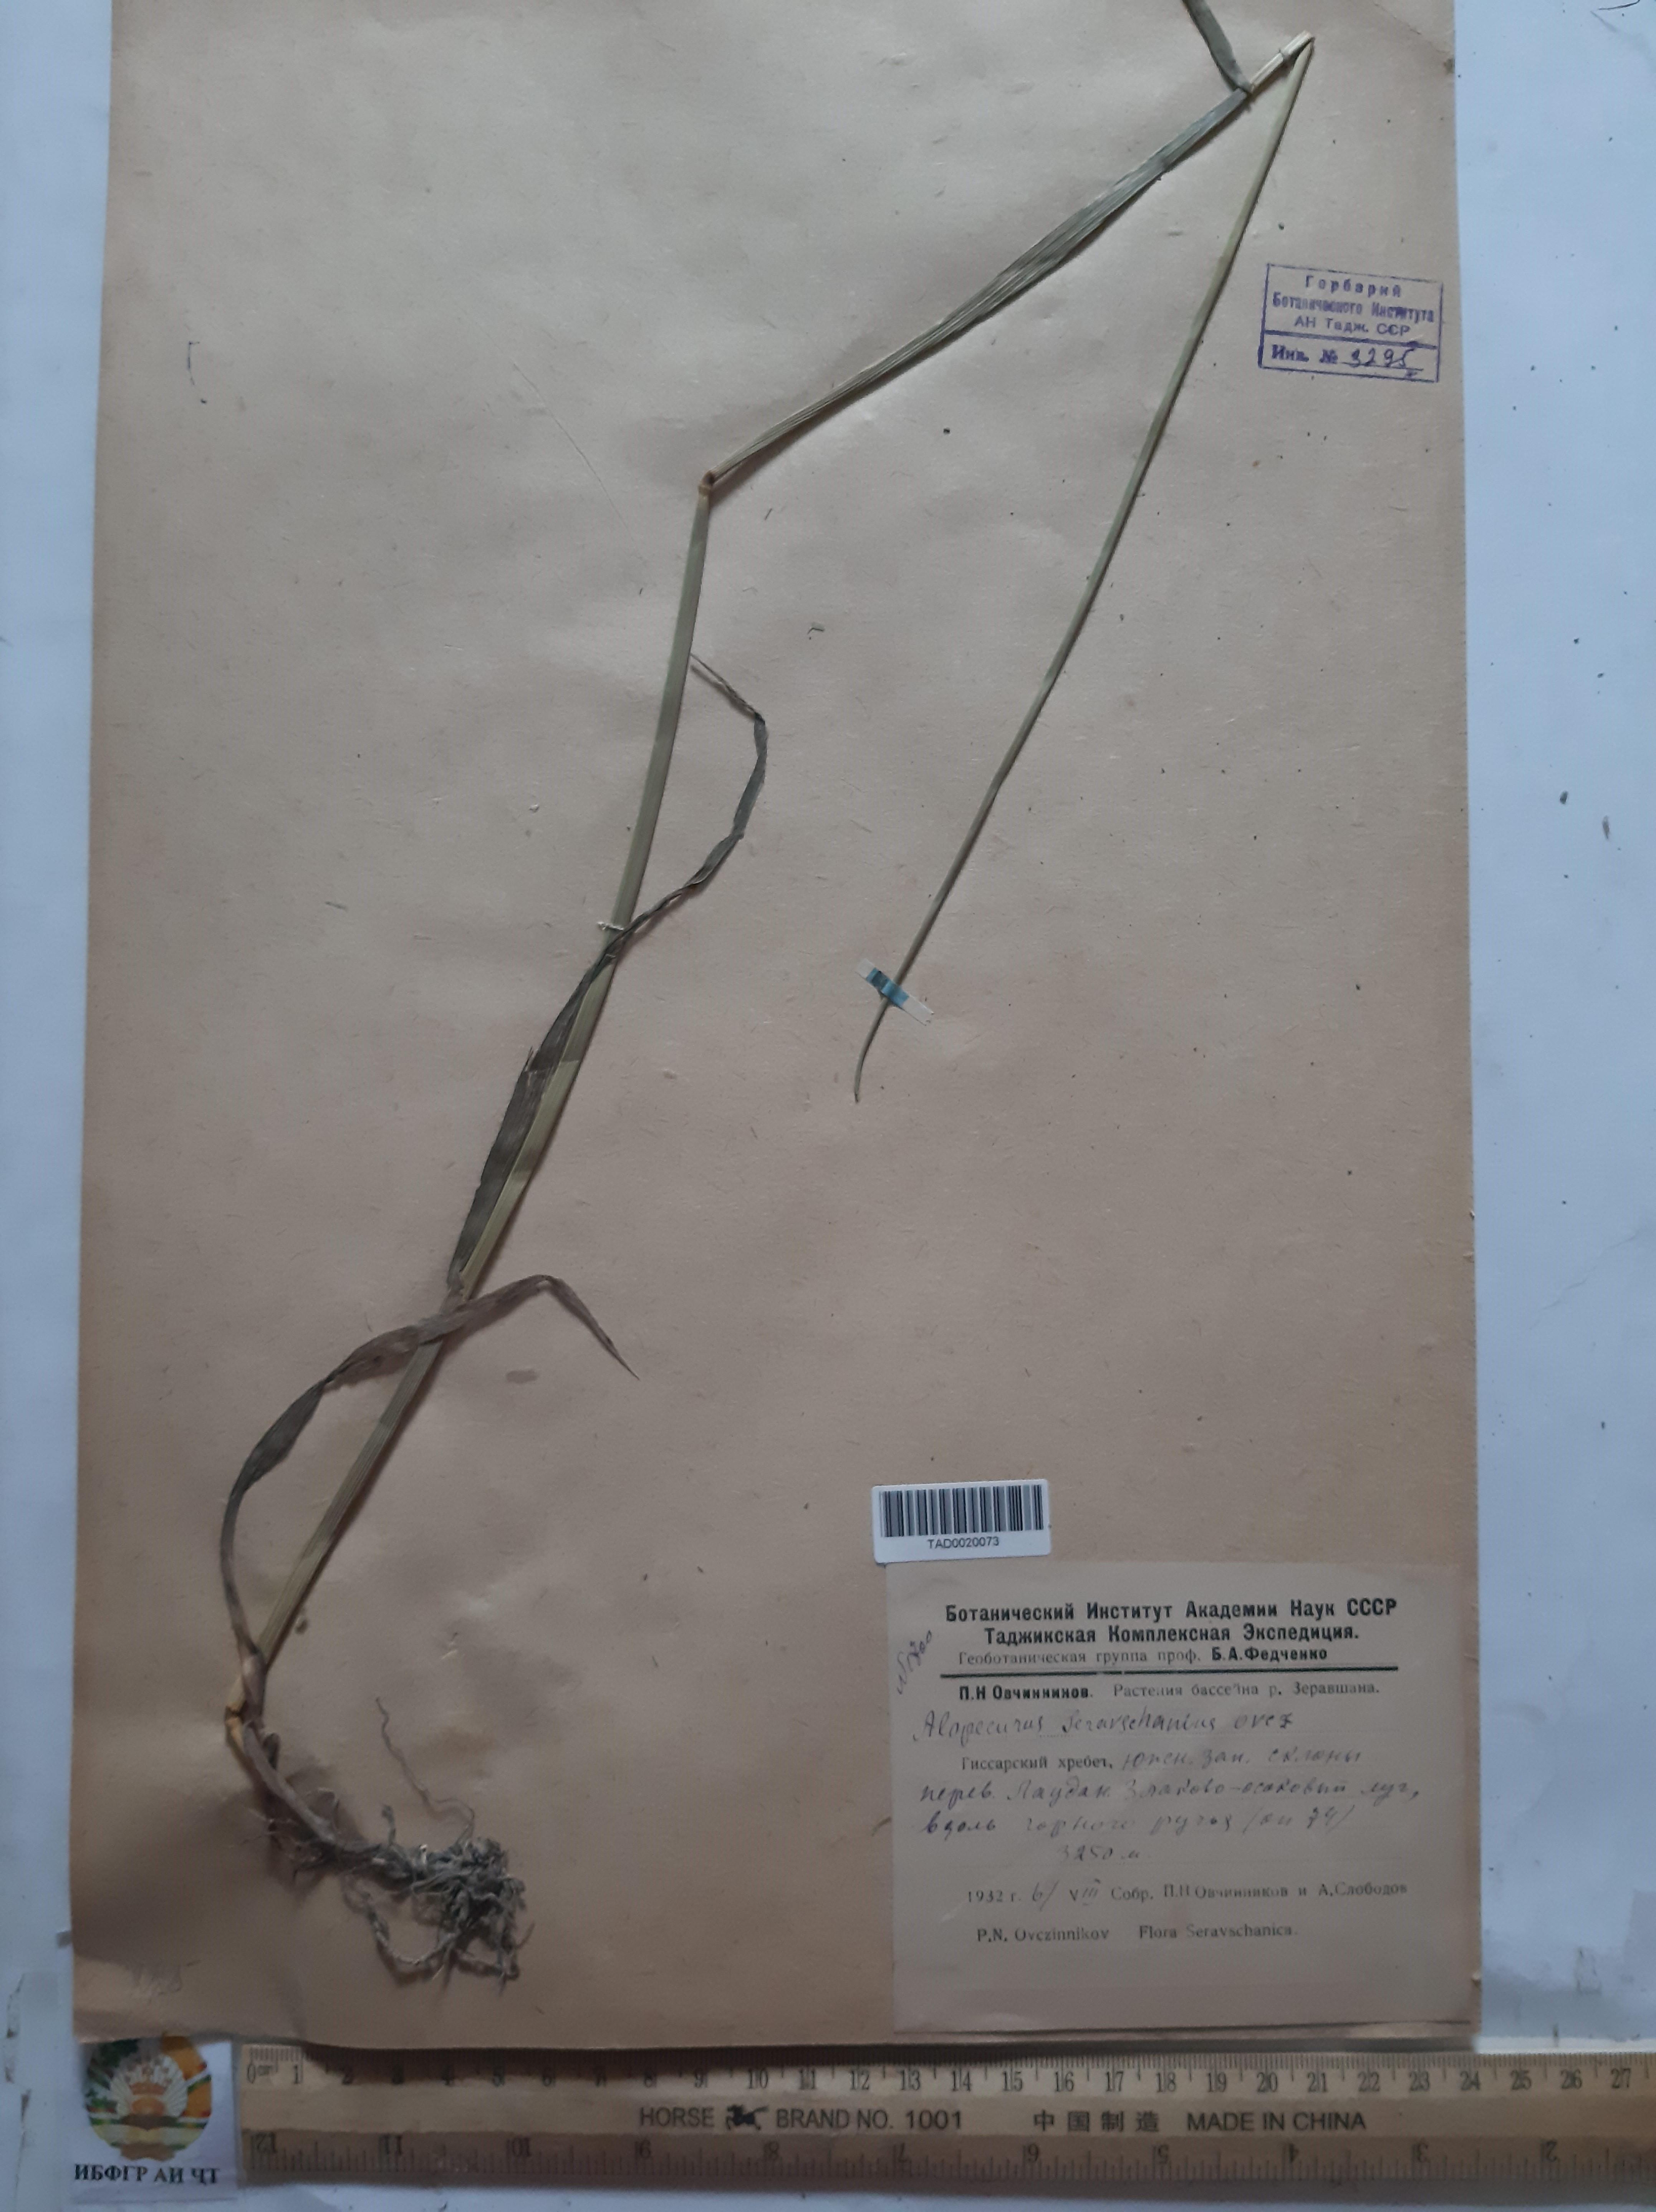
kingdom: Plantae
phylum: Tracheophyta
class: Liliopsida
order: Poales
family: Poaceae
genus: Alopecurus
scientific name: Alopecurus pratensis
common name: Meadow foxtail
